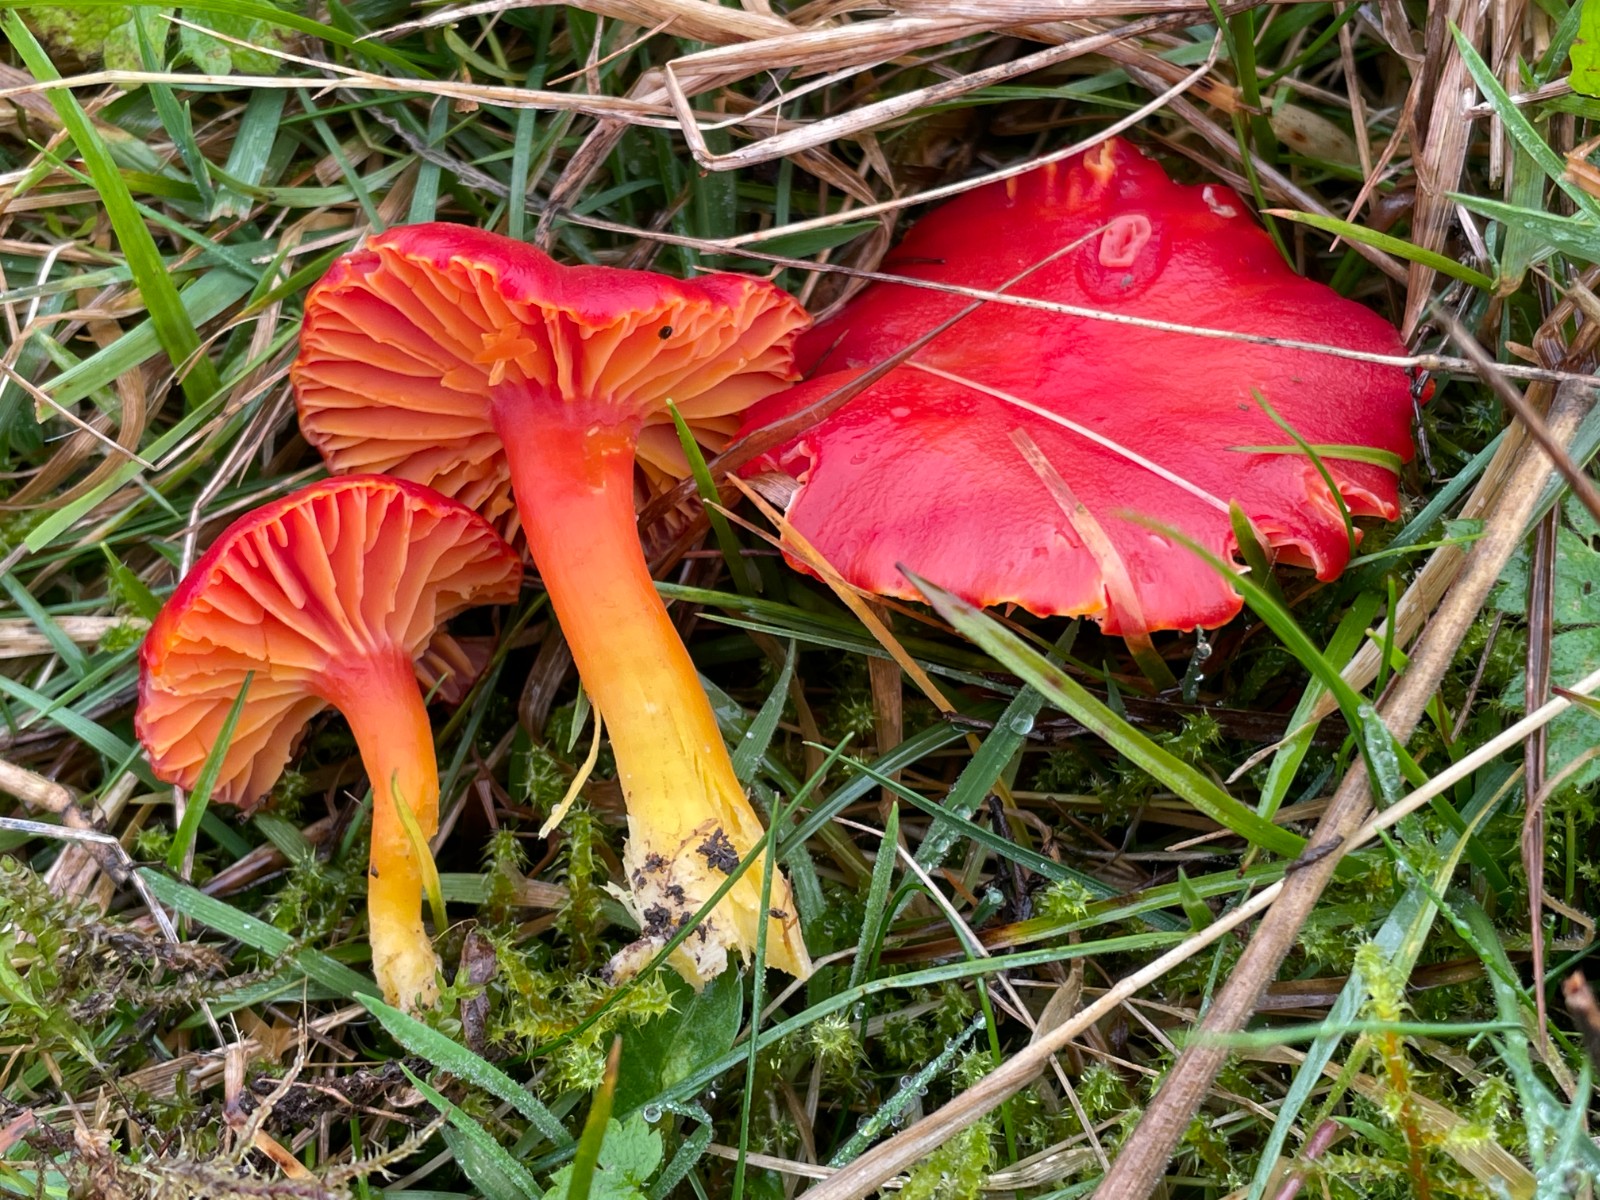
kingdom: Fungi
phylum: Basidiomycota
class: Agaricomycetes
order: Agaricales
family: Hygrophoraceae
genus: Hygrocybe
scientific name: Hygrocybe coccinea
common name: cinnober-vokshat
